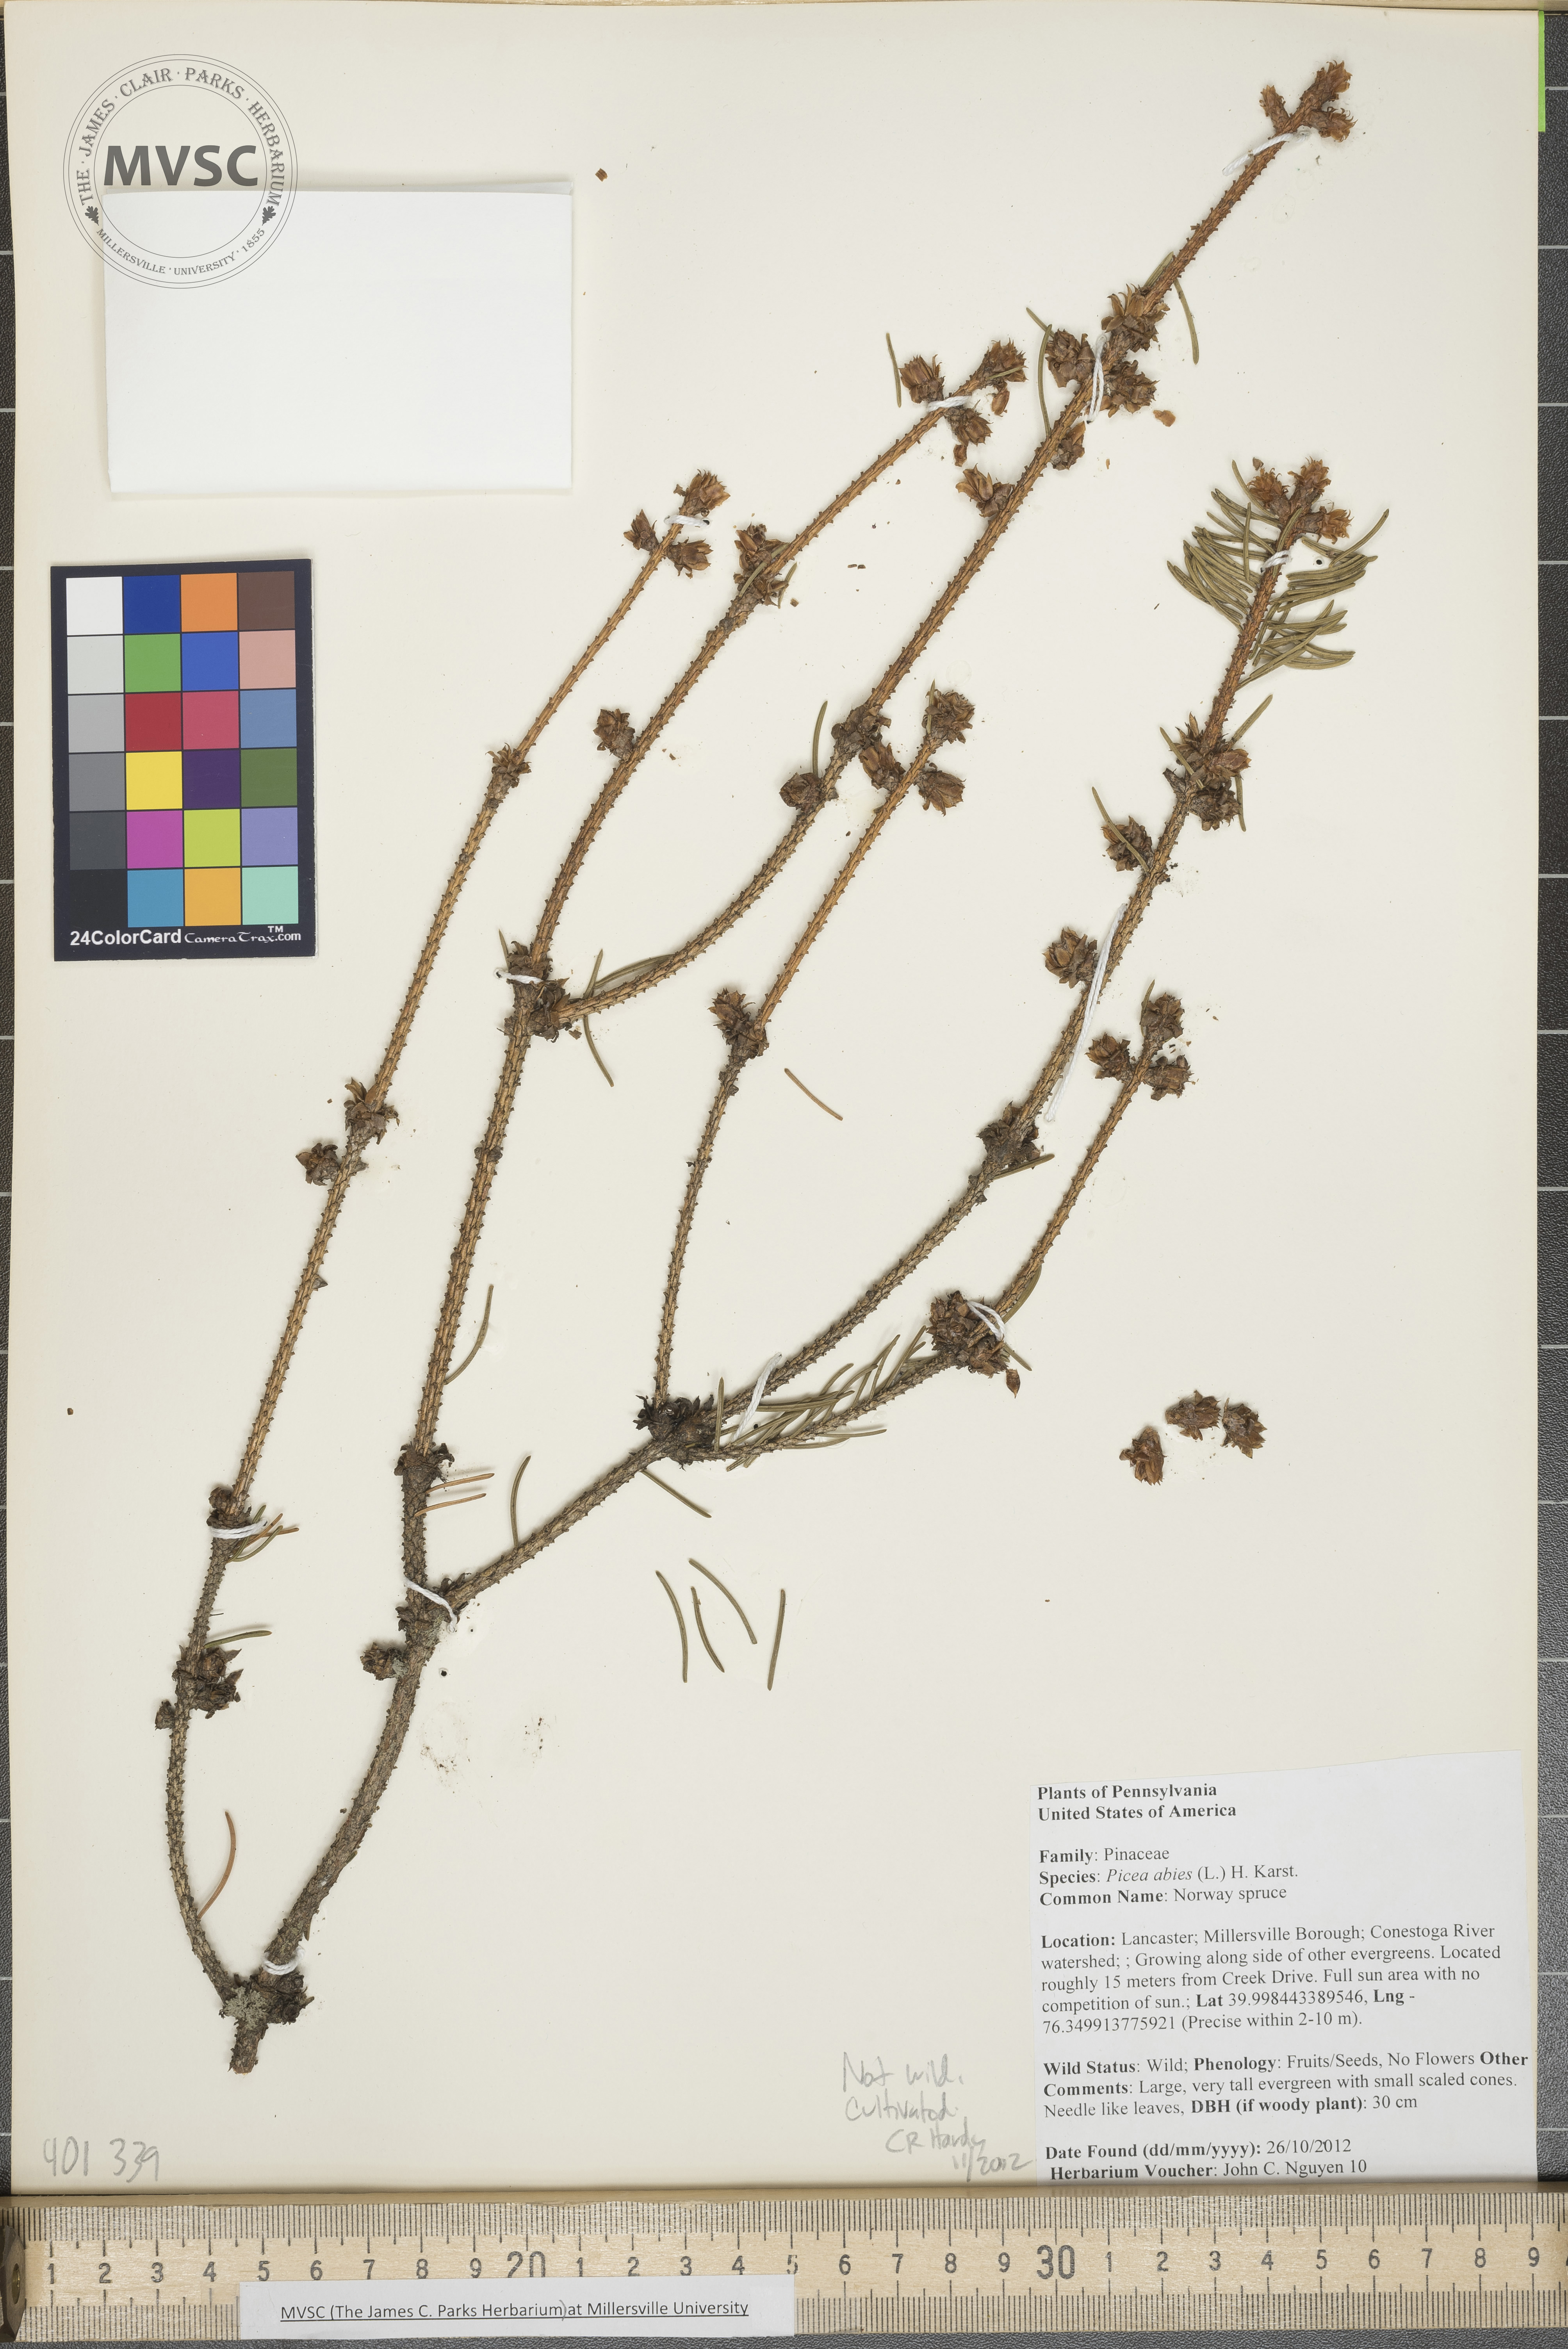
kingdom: Plantae
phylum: Tracheophyta
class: Pinopsida
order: Pinales
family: Pinaceae
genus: Picea
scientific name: Picea abies
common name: Norway spruce
